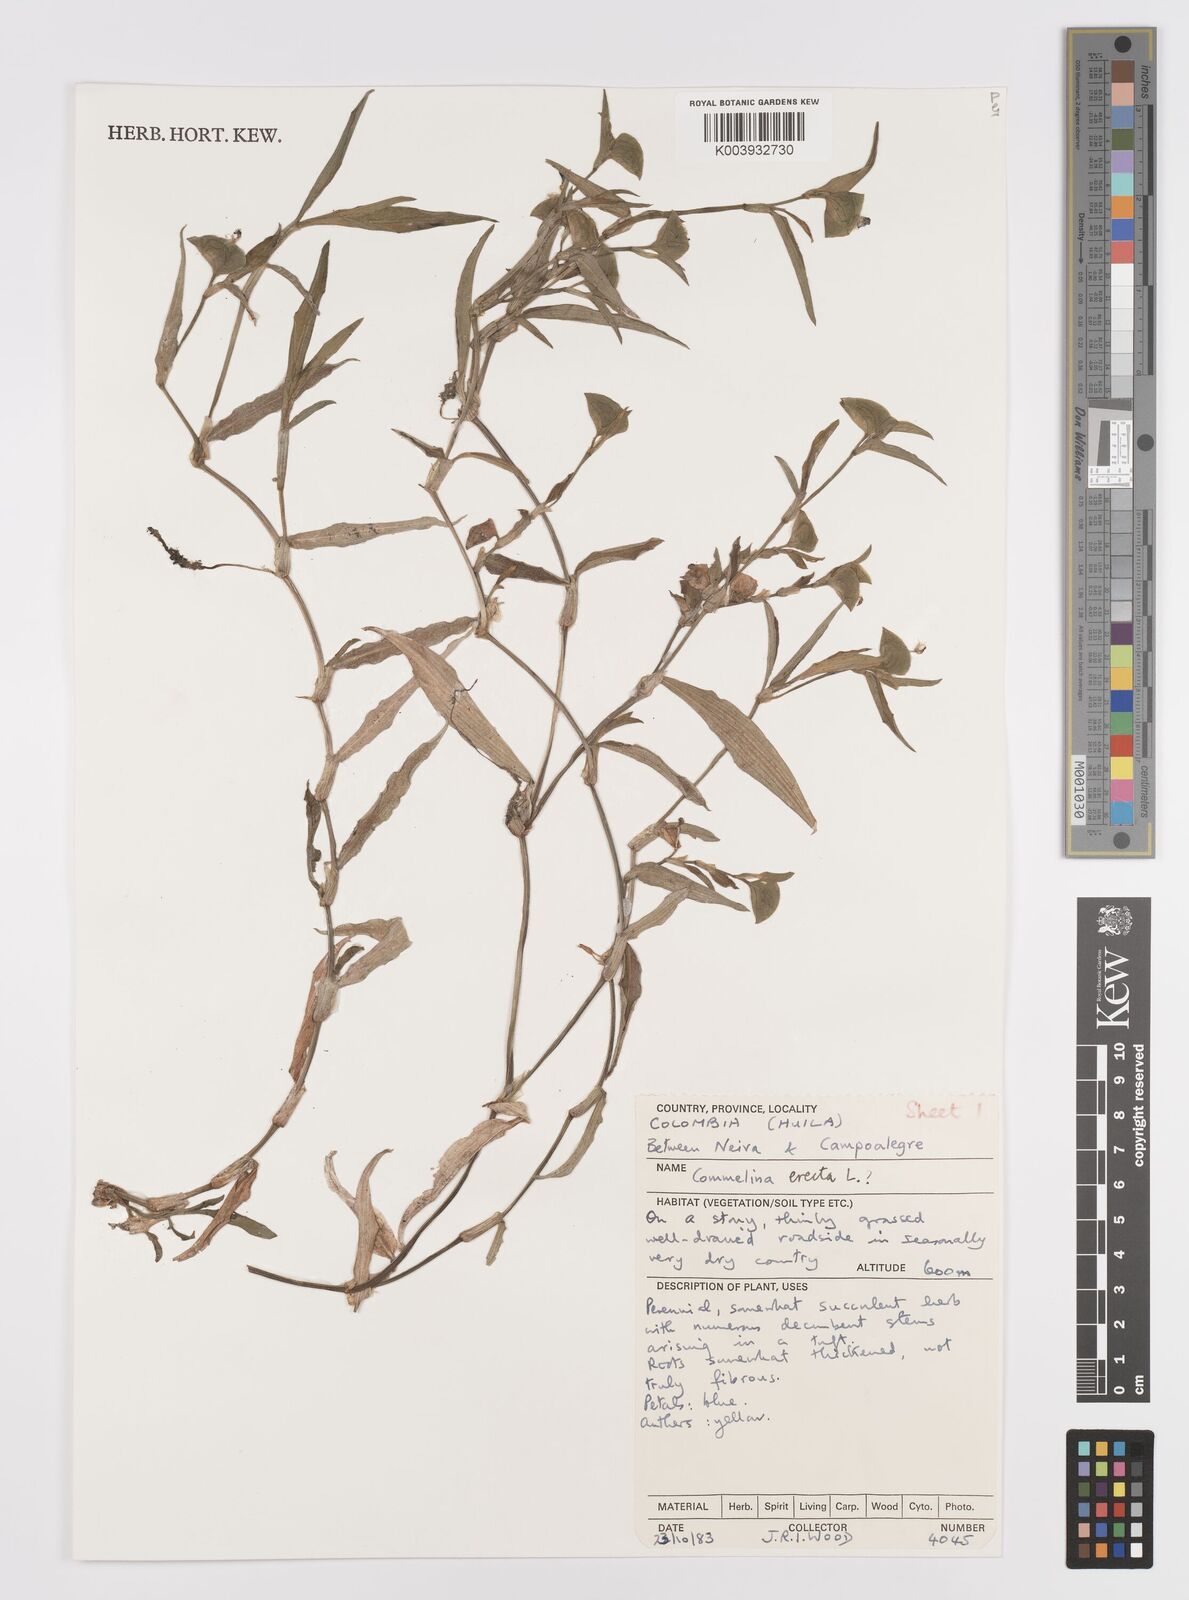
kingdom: Plantae
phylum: Tracheophyta
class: Liliopsida
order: Commelinales
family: Commelinaceae
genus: Commelina
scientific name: Commelina erecta
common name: Blousel blommetjie
